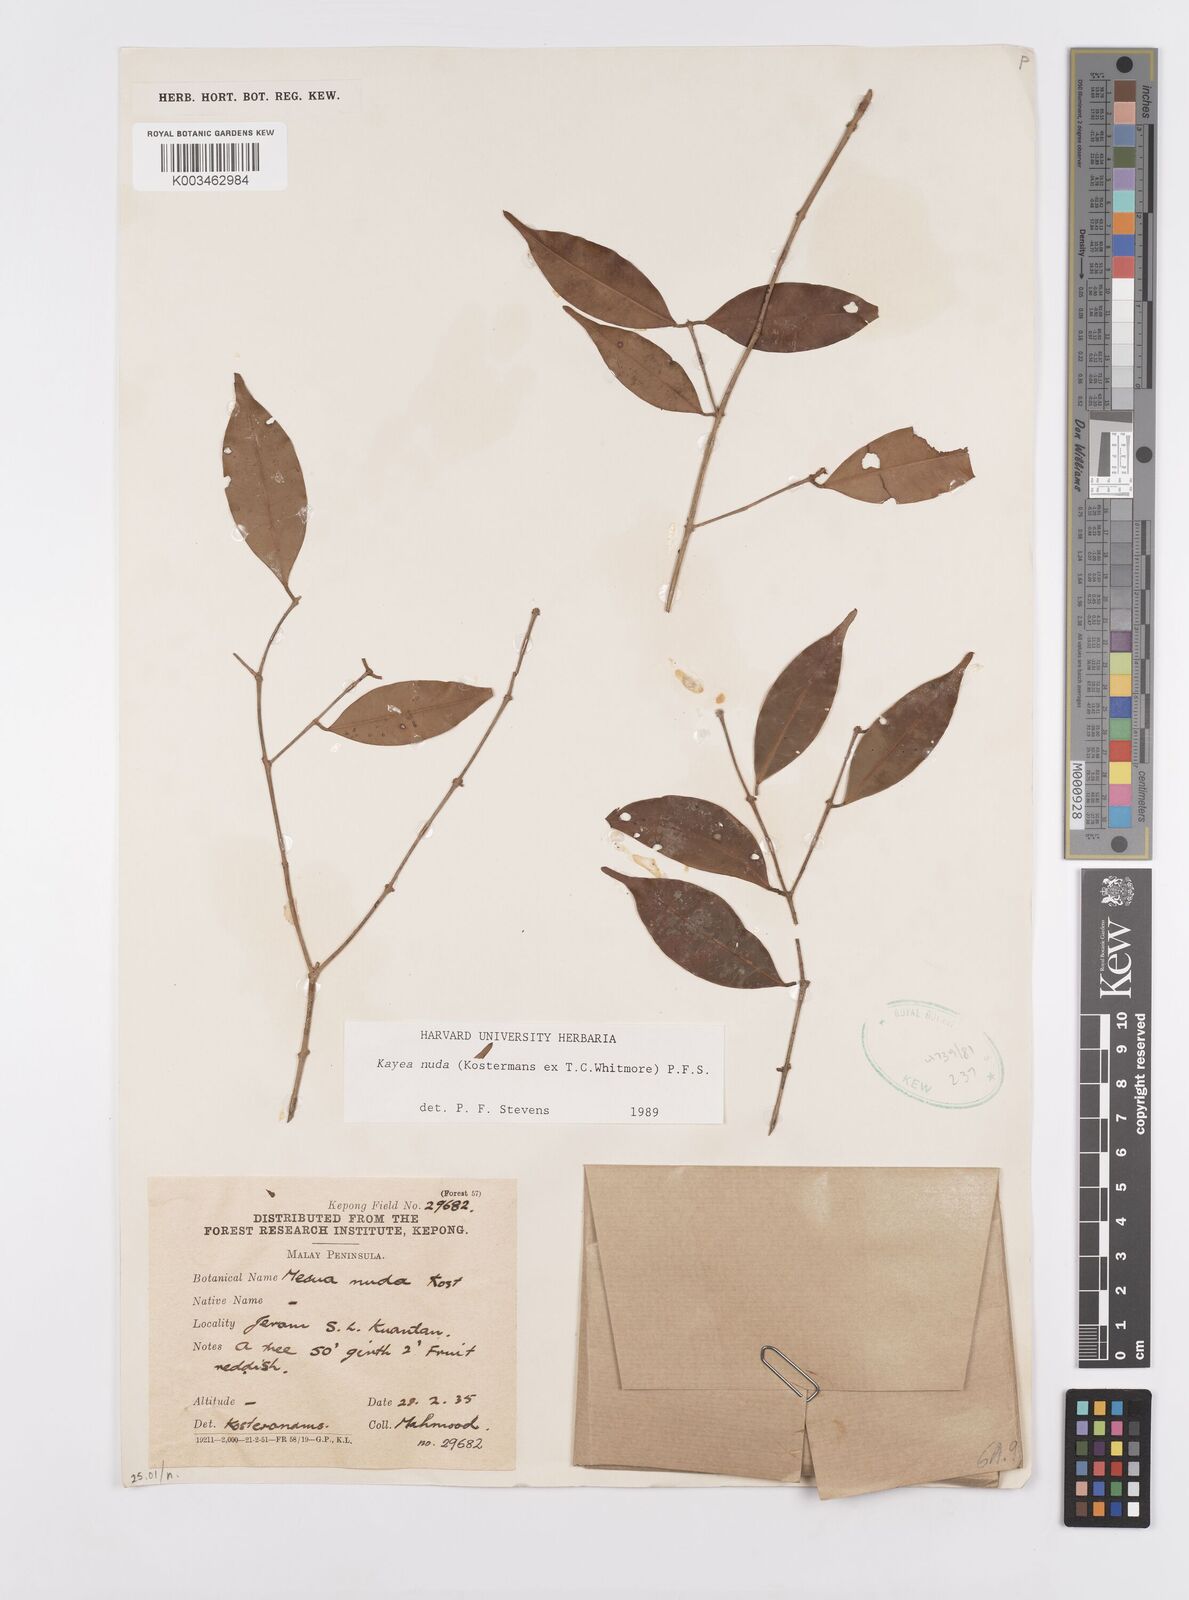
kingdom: Plantae
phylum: Tracheophyta
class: Magnoliopsida
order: Malpighiales
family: Calophyllaceae
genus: Kayea
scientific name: Kayea
